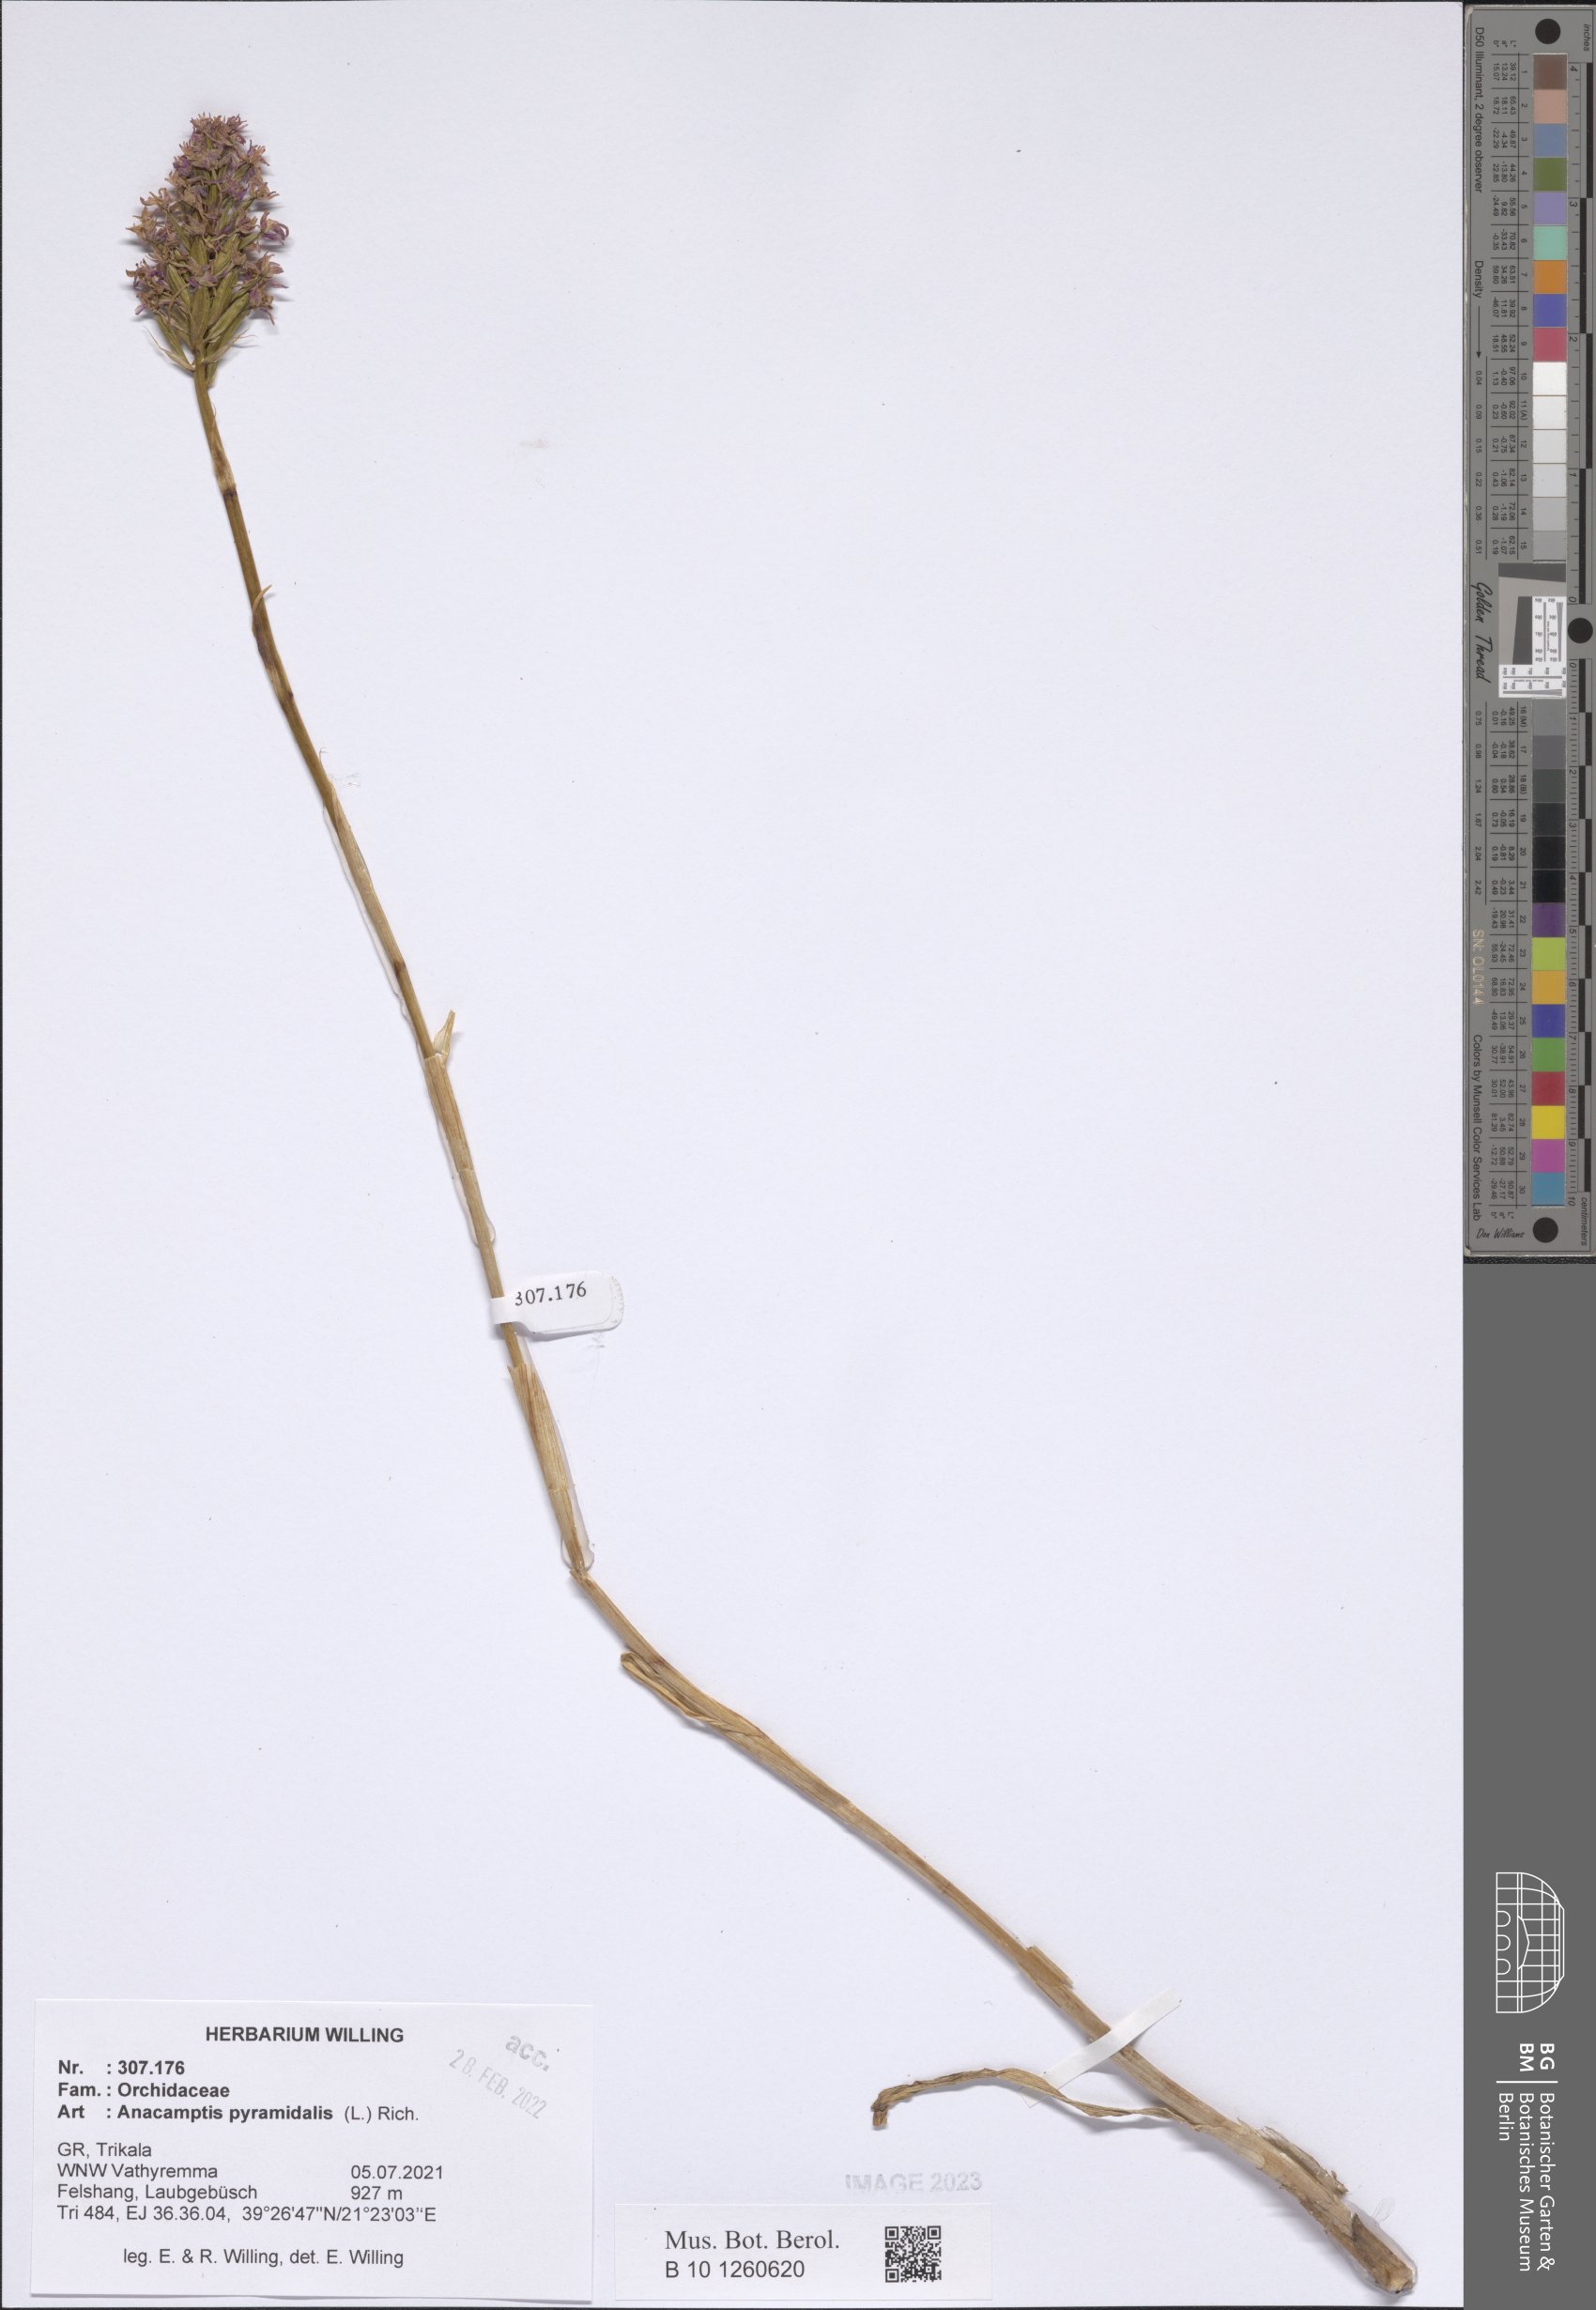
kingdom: Plantae
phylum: Tracheophyta
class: Liliopsida
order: Asparagales
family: Orchidaceae
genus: Anacamptis
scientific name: Anacamptis pyramidalis
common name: Pyramidal orchid
